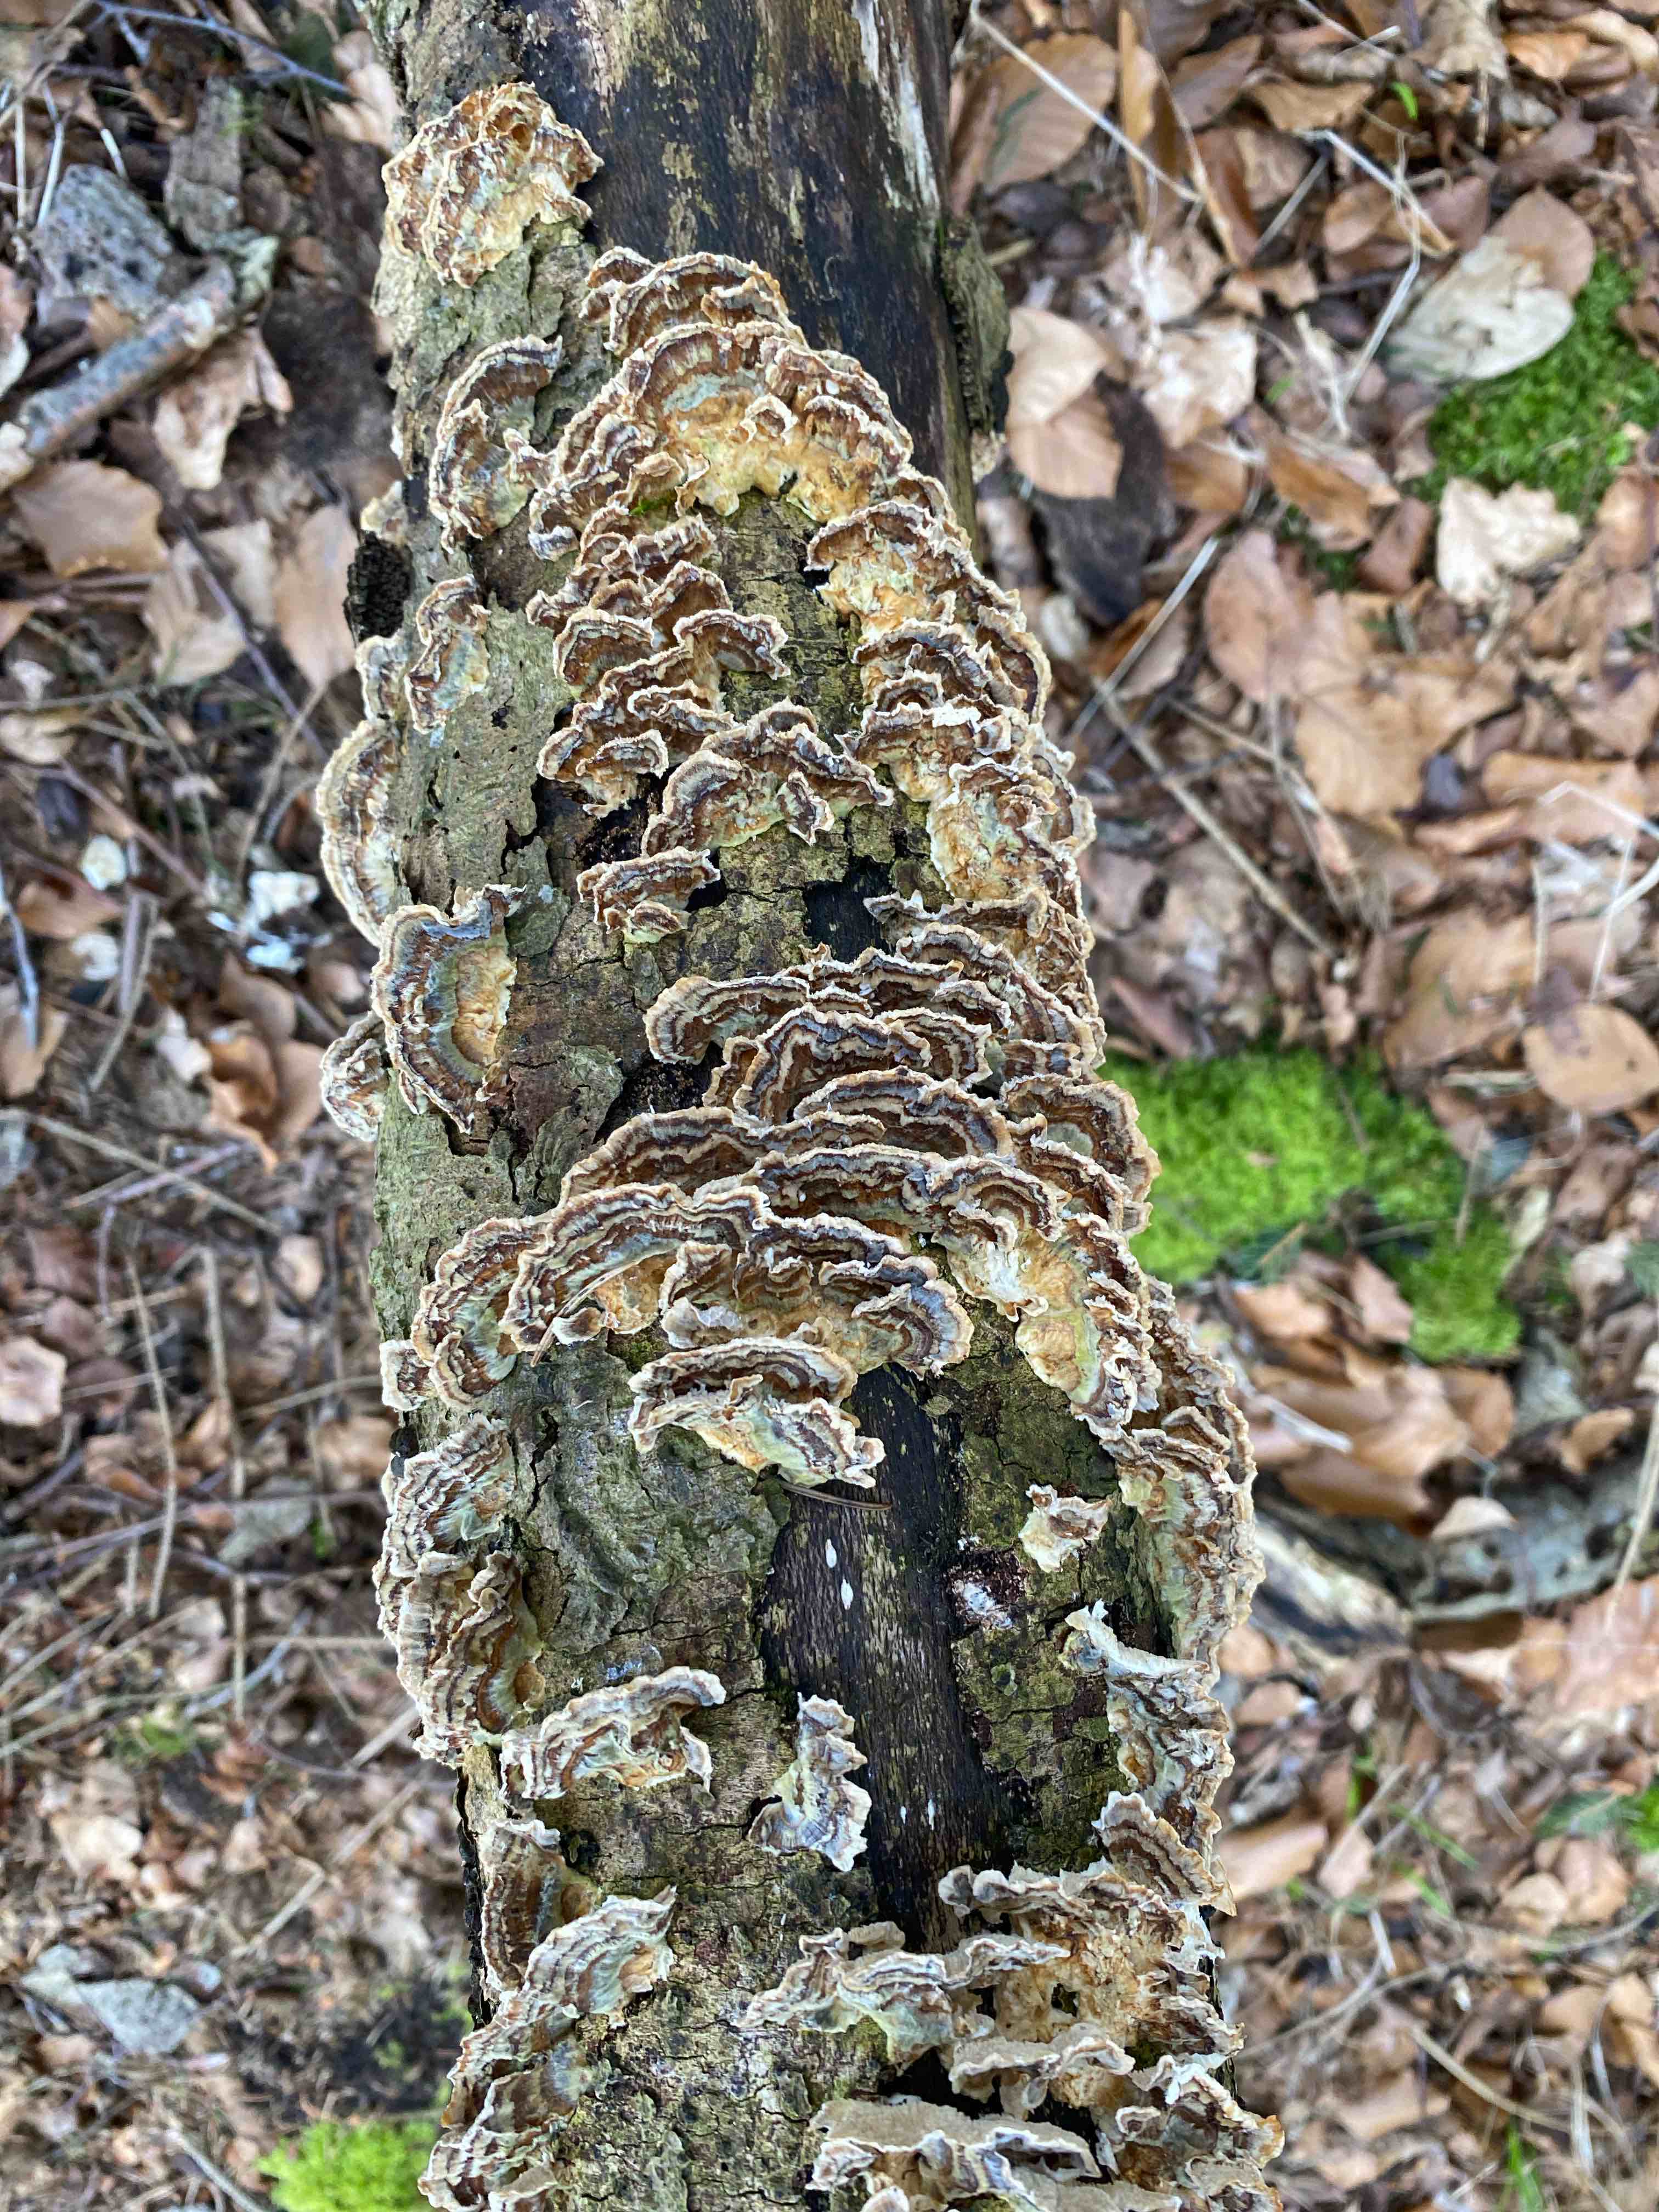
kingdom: Fungi
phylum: Basidiomycota
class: Agaricomycetes
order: Polyporales
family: Polyporaceae
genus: Trametes
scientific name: Trametes versicolor
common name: broget læderporesvamp
